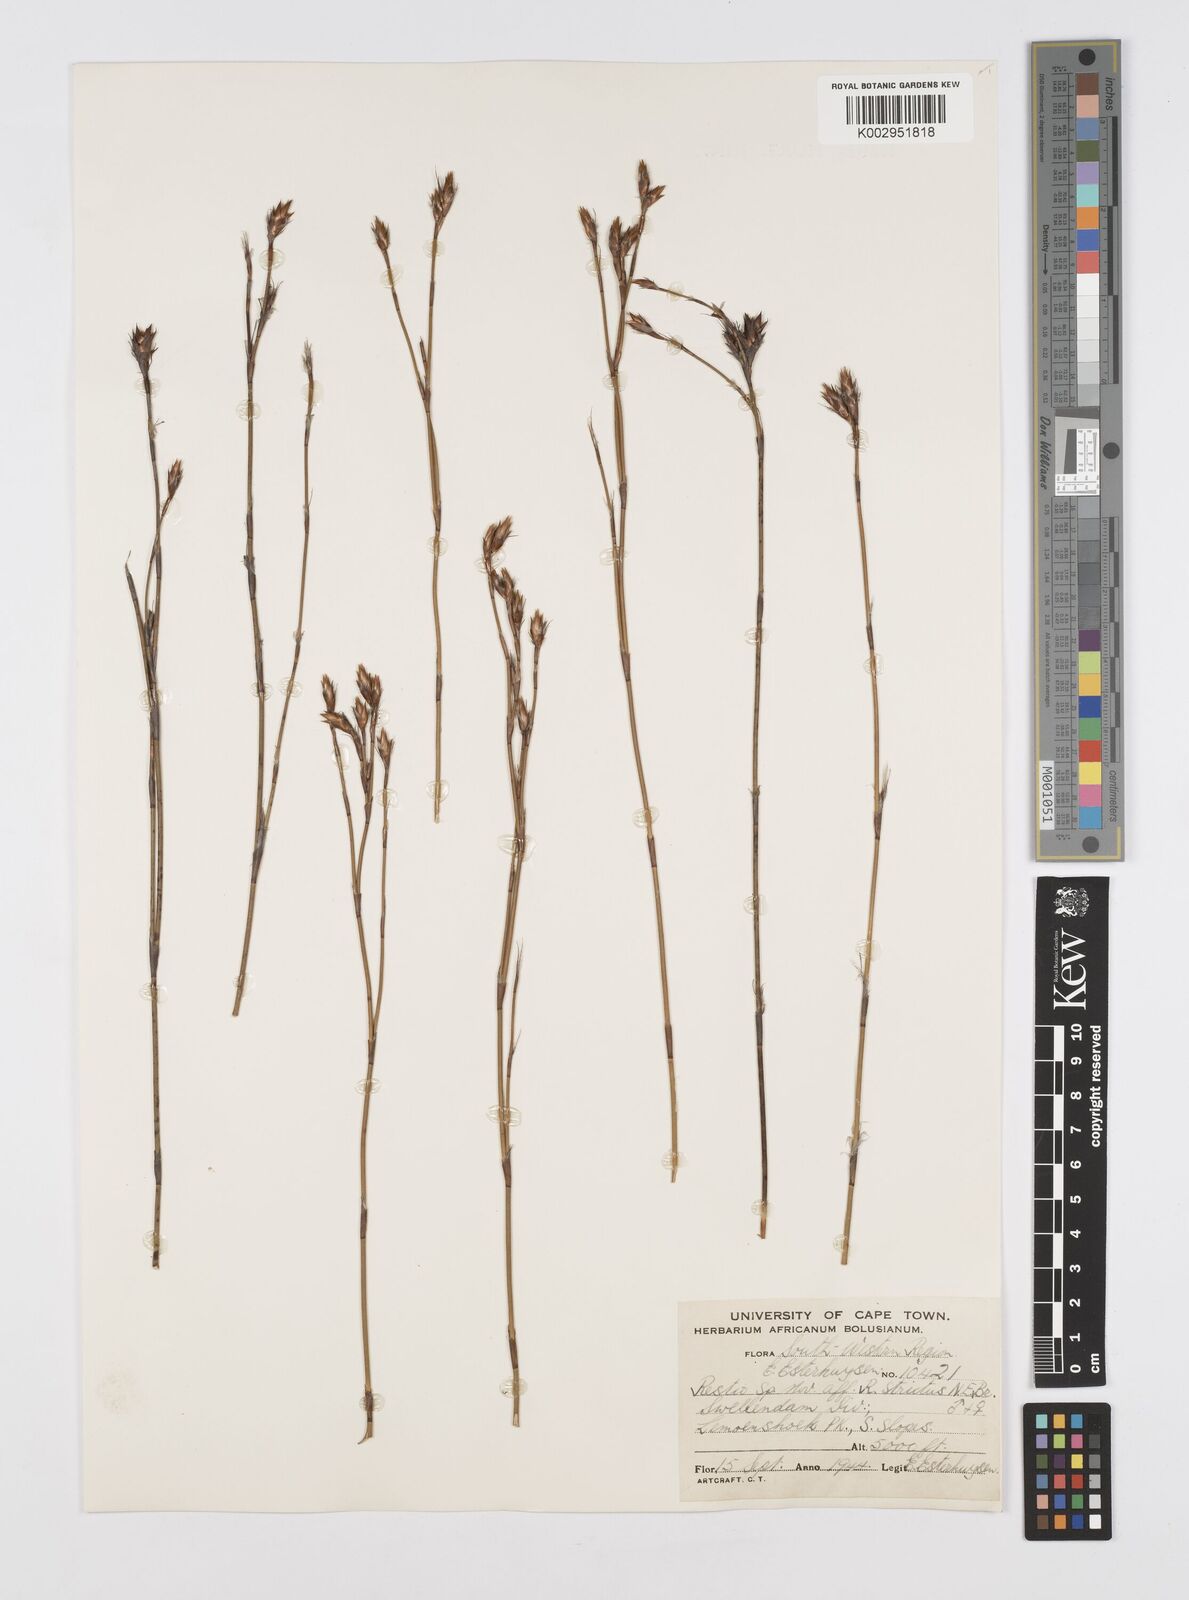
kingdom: Plantae
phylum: Tracheophyta
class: Liliopsida
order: Poales
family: Restionaceae
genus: Restio
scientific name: Restio strictus
